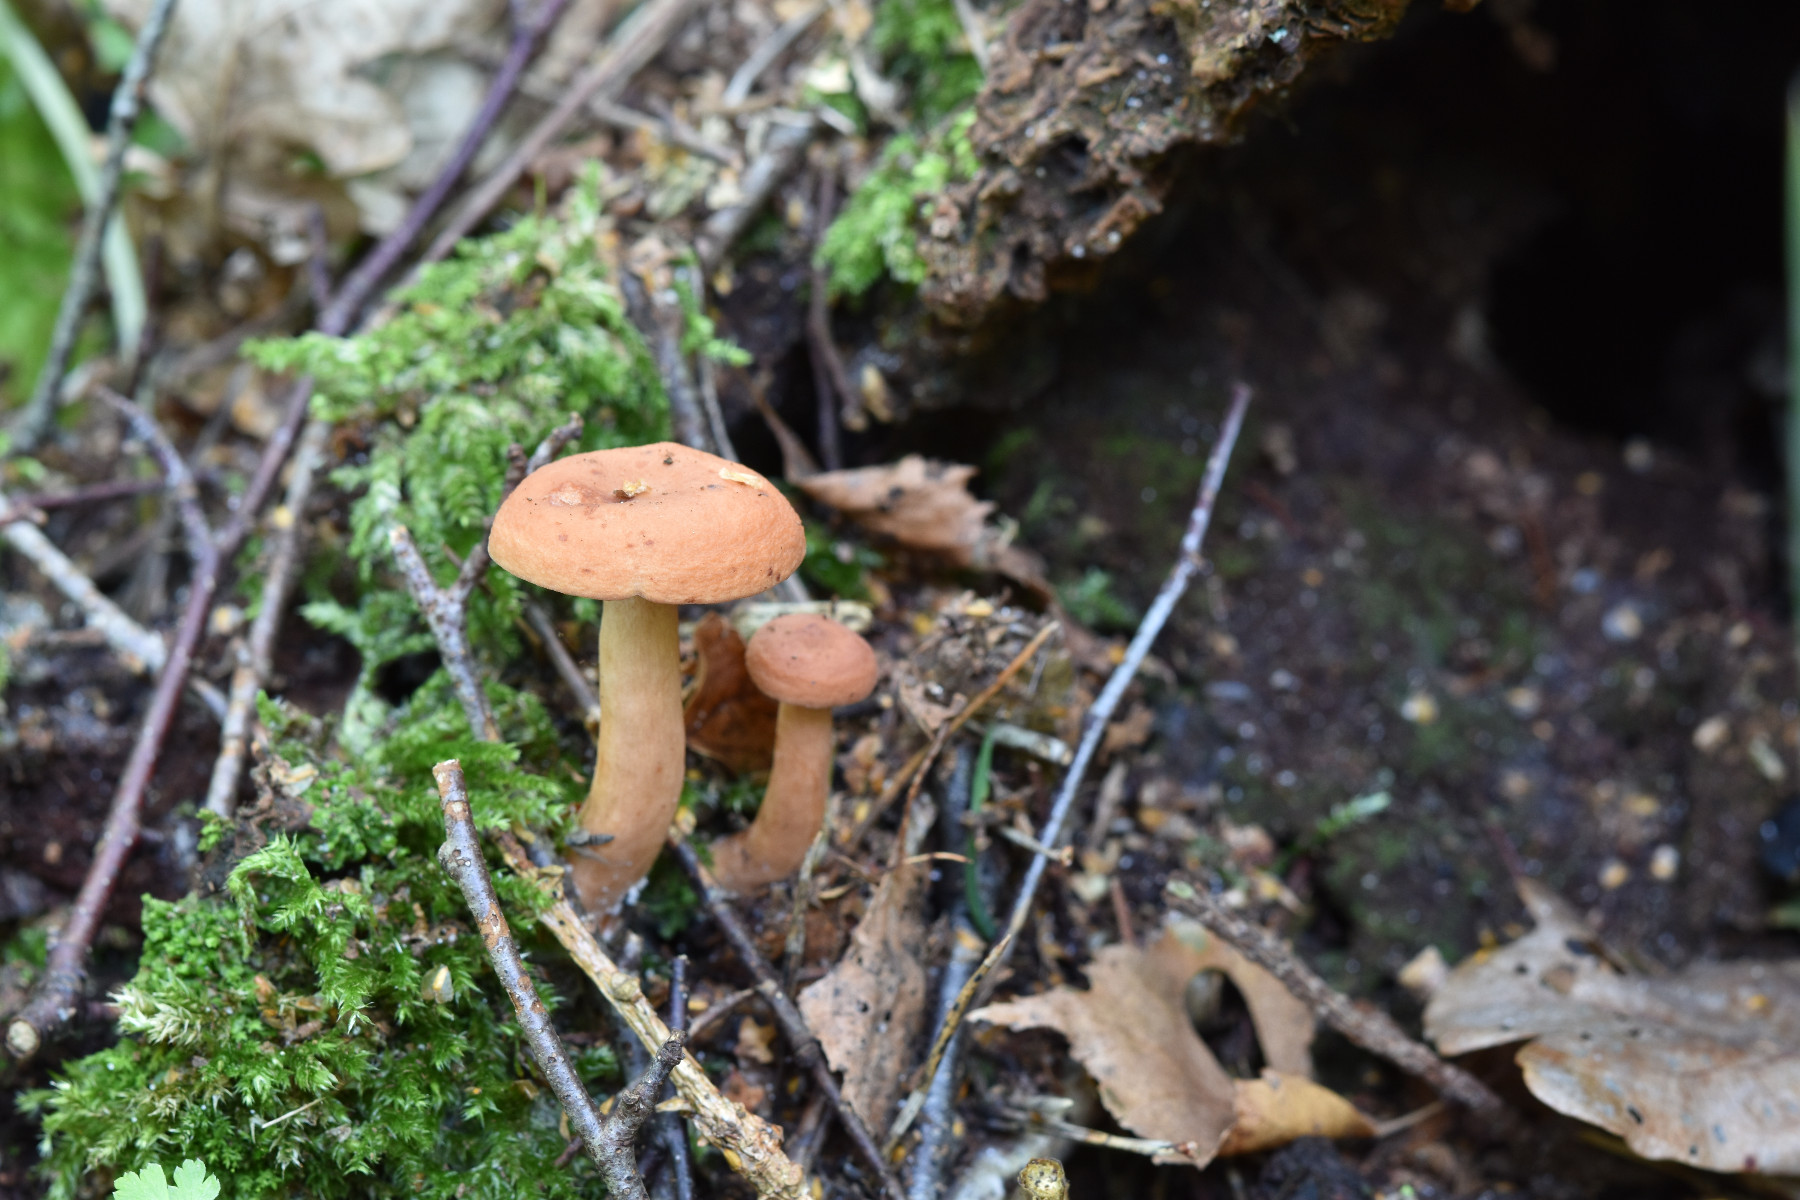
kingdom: Fungi
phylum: Basidiomycota
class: Agaricomycetes
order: Russulales
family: Russulaceae
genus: Lactarius
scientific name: Lactarius tabidus
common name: rynket mælkehat
